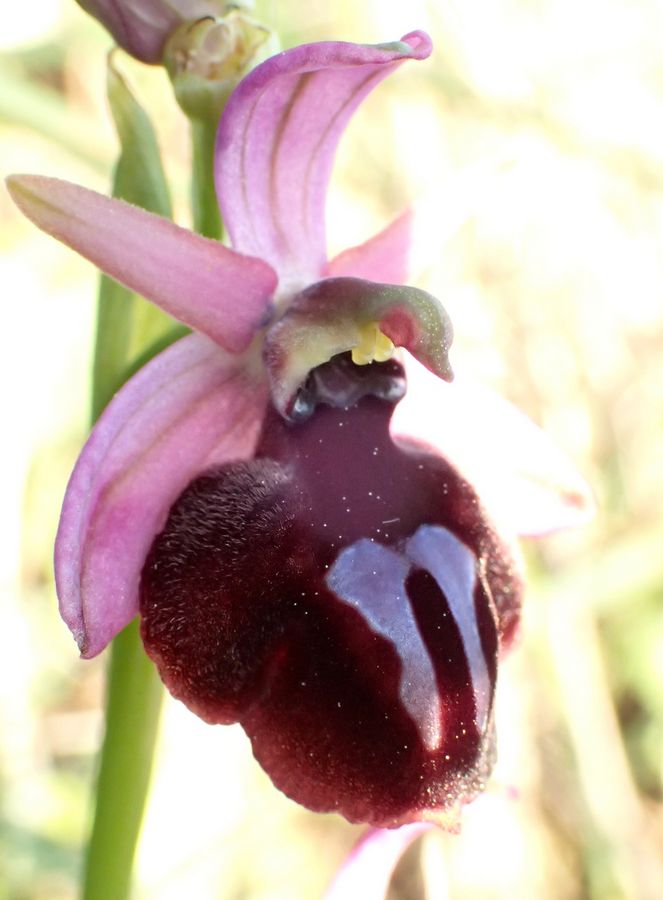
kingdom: Plantae
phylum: Tracheophyta
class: Liliopsida
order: Asparagales
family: Orchidaceae
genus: Ophrys
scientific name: Ophrys sphegodes
